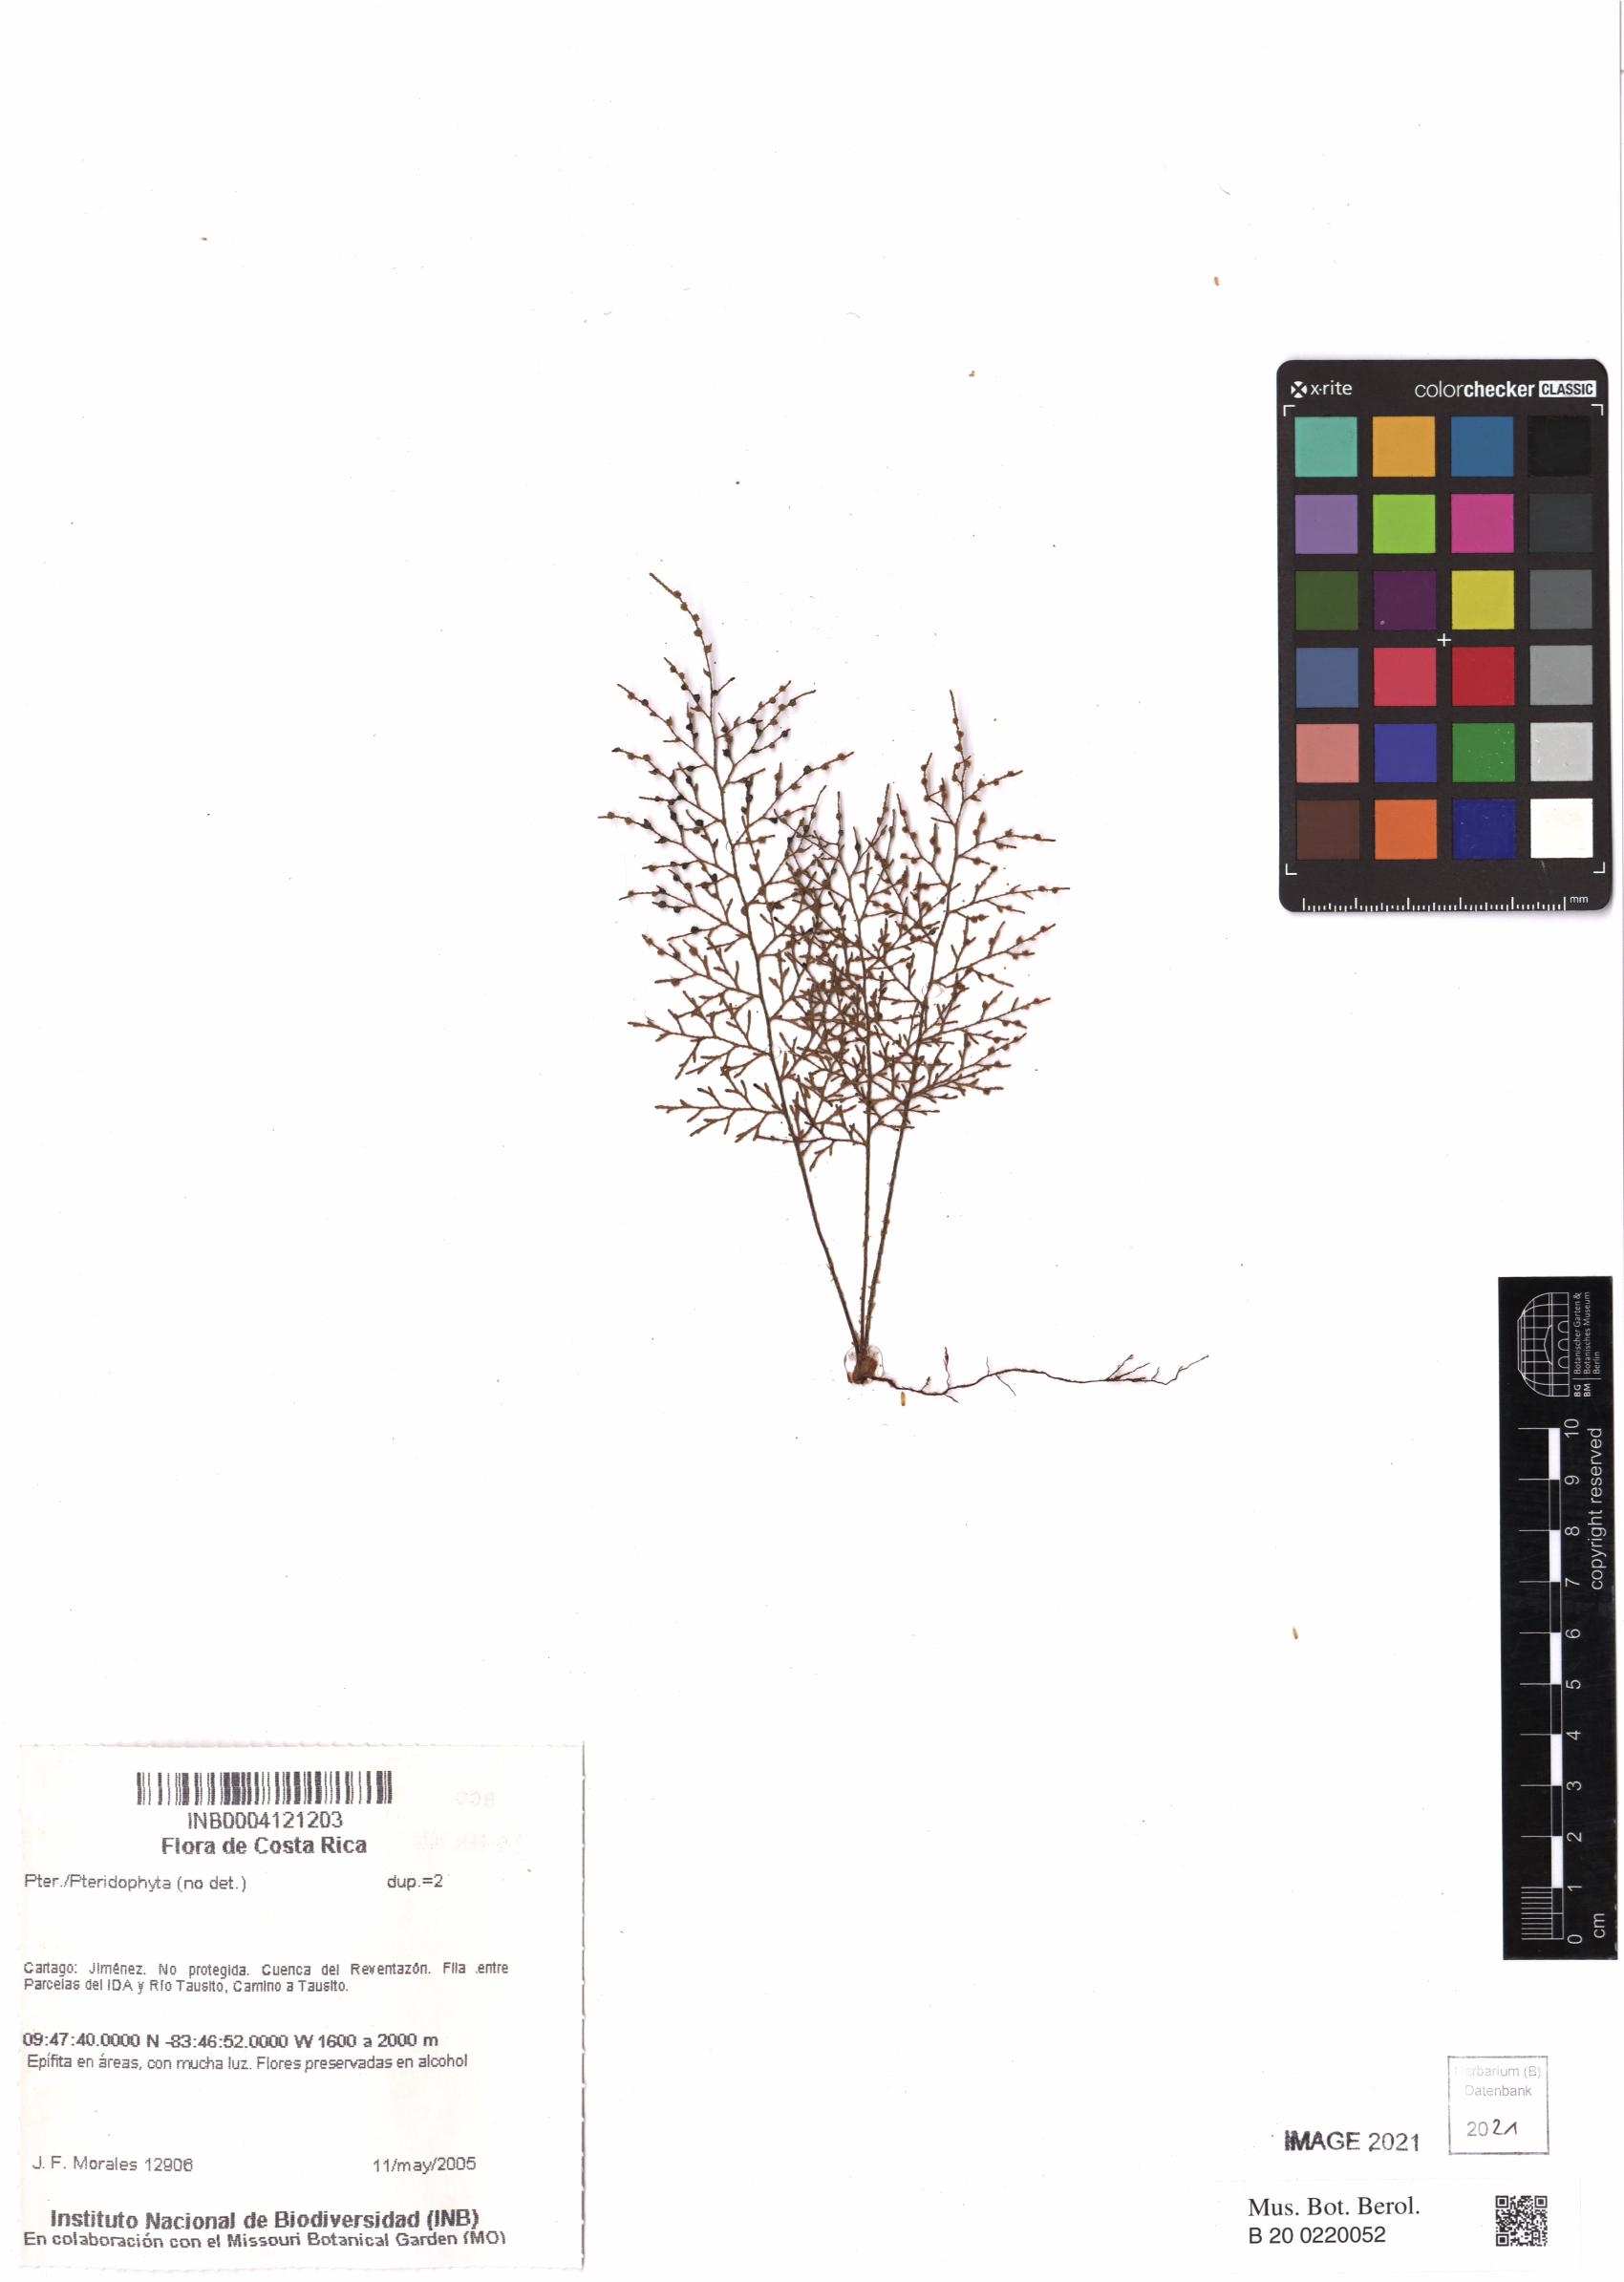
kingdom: Plantae
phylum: Tracheophyta
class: Polypodiopsida
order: Polypodiales
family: Polypodiaceae
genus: Pleopeltis
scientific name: Pleopeltis friedrichsthaliana
